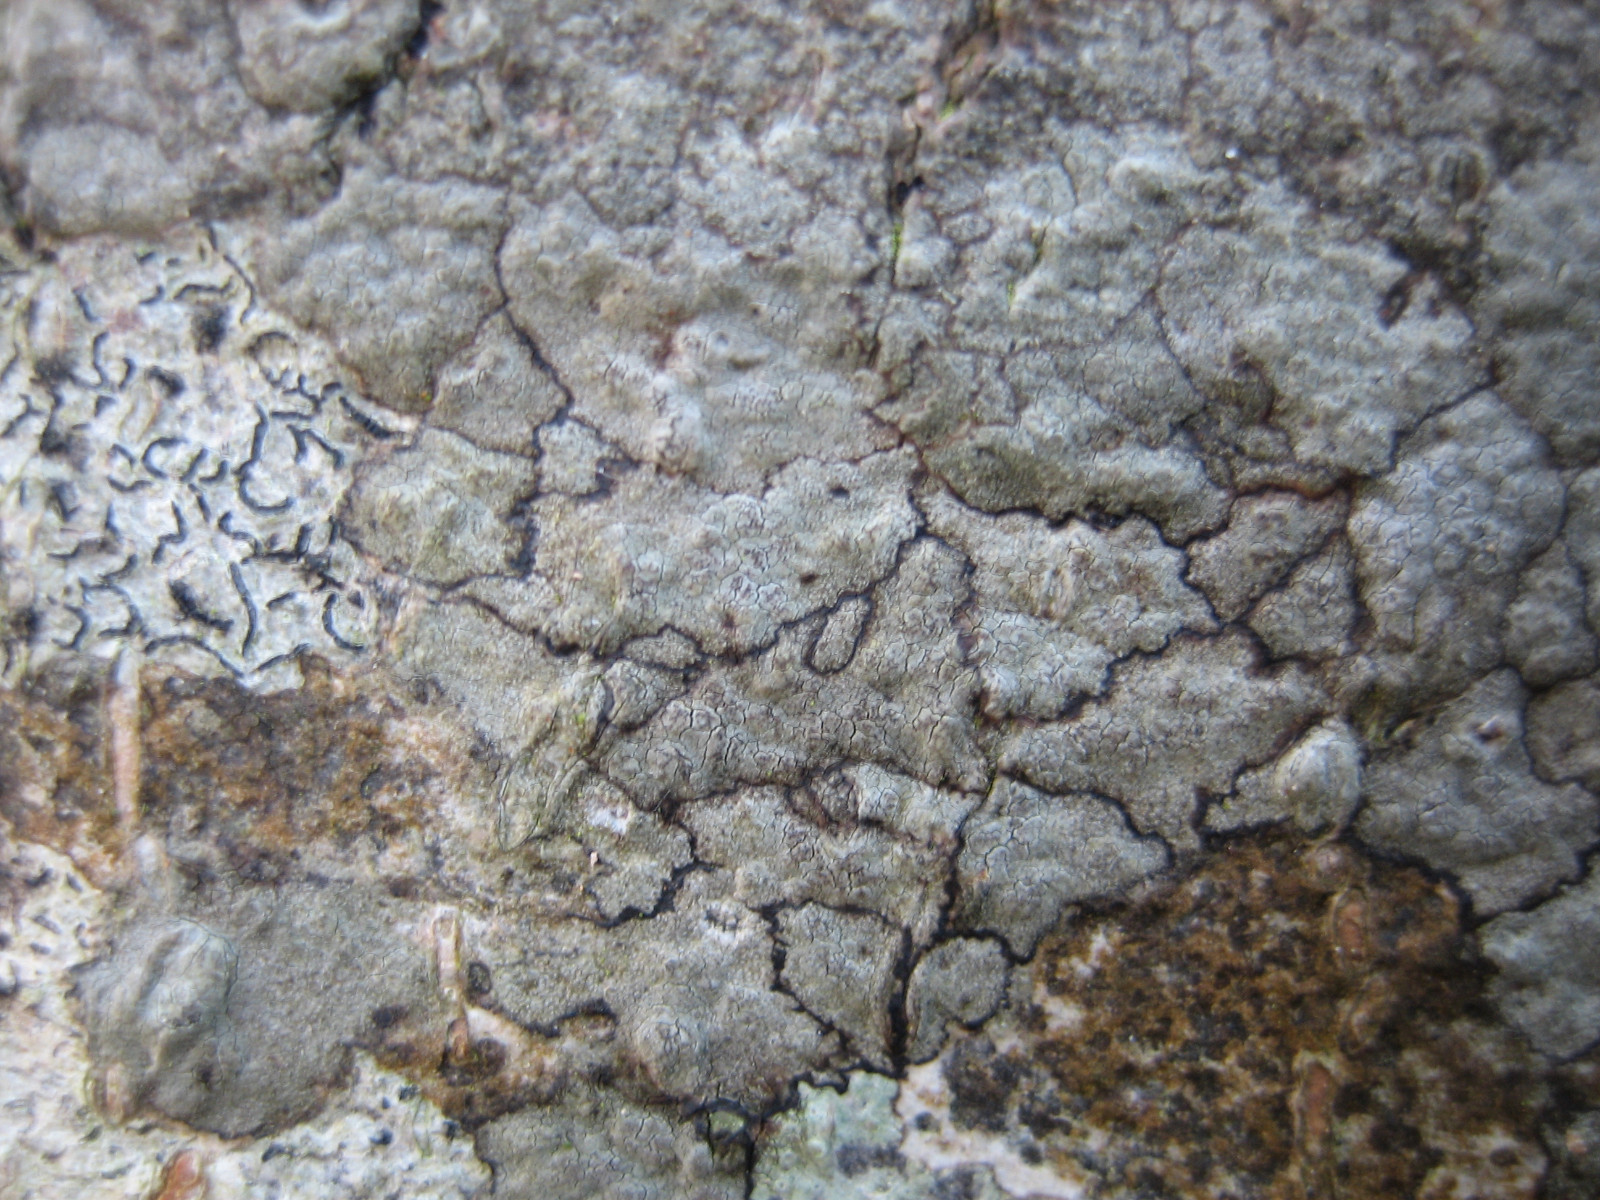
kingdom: Fungi
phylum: Ascomycota
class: Arthoniomycetes
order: Arthoniales
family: Roccellaceae
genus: Enterographa
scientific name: Enterographa crassa
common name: tyk prægelav
